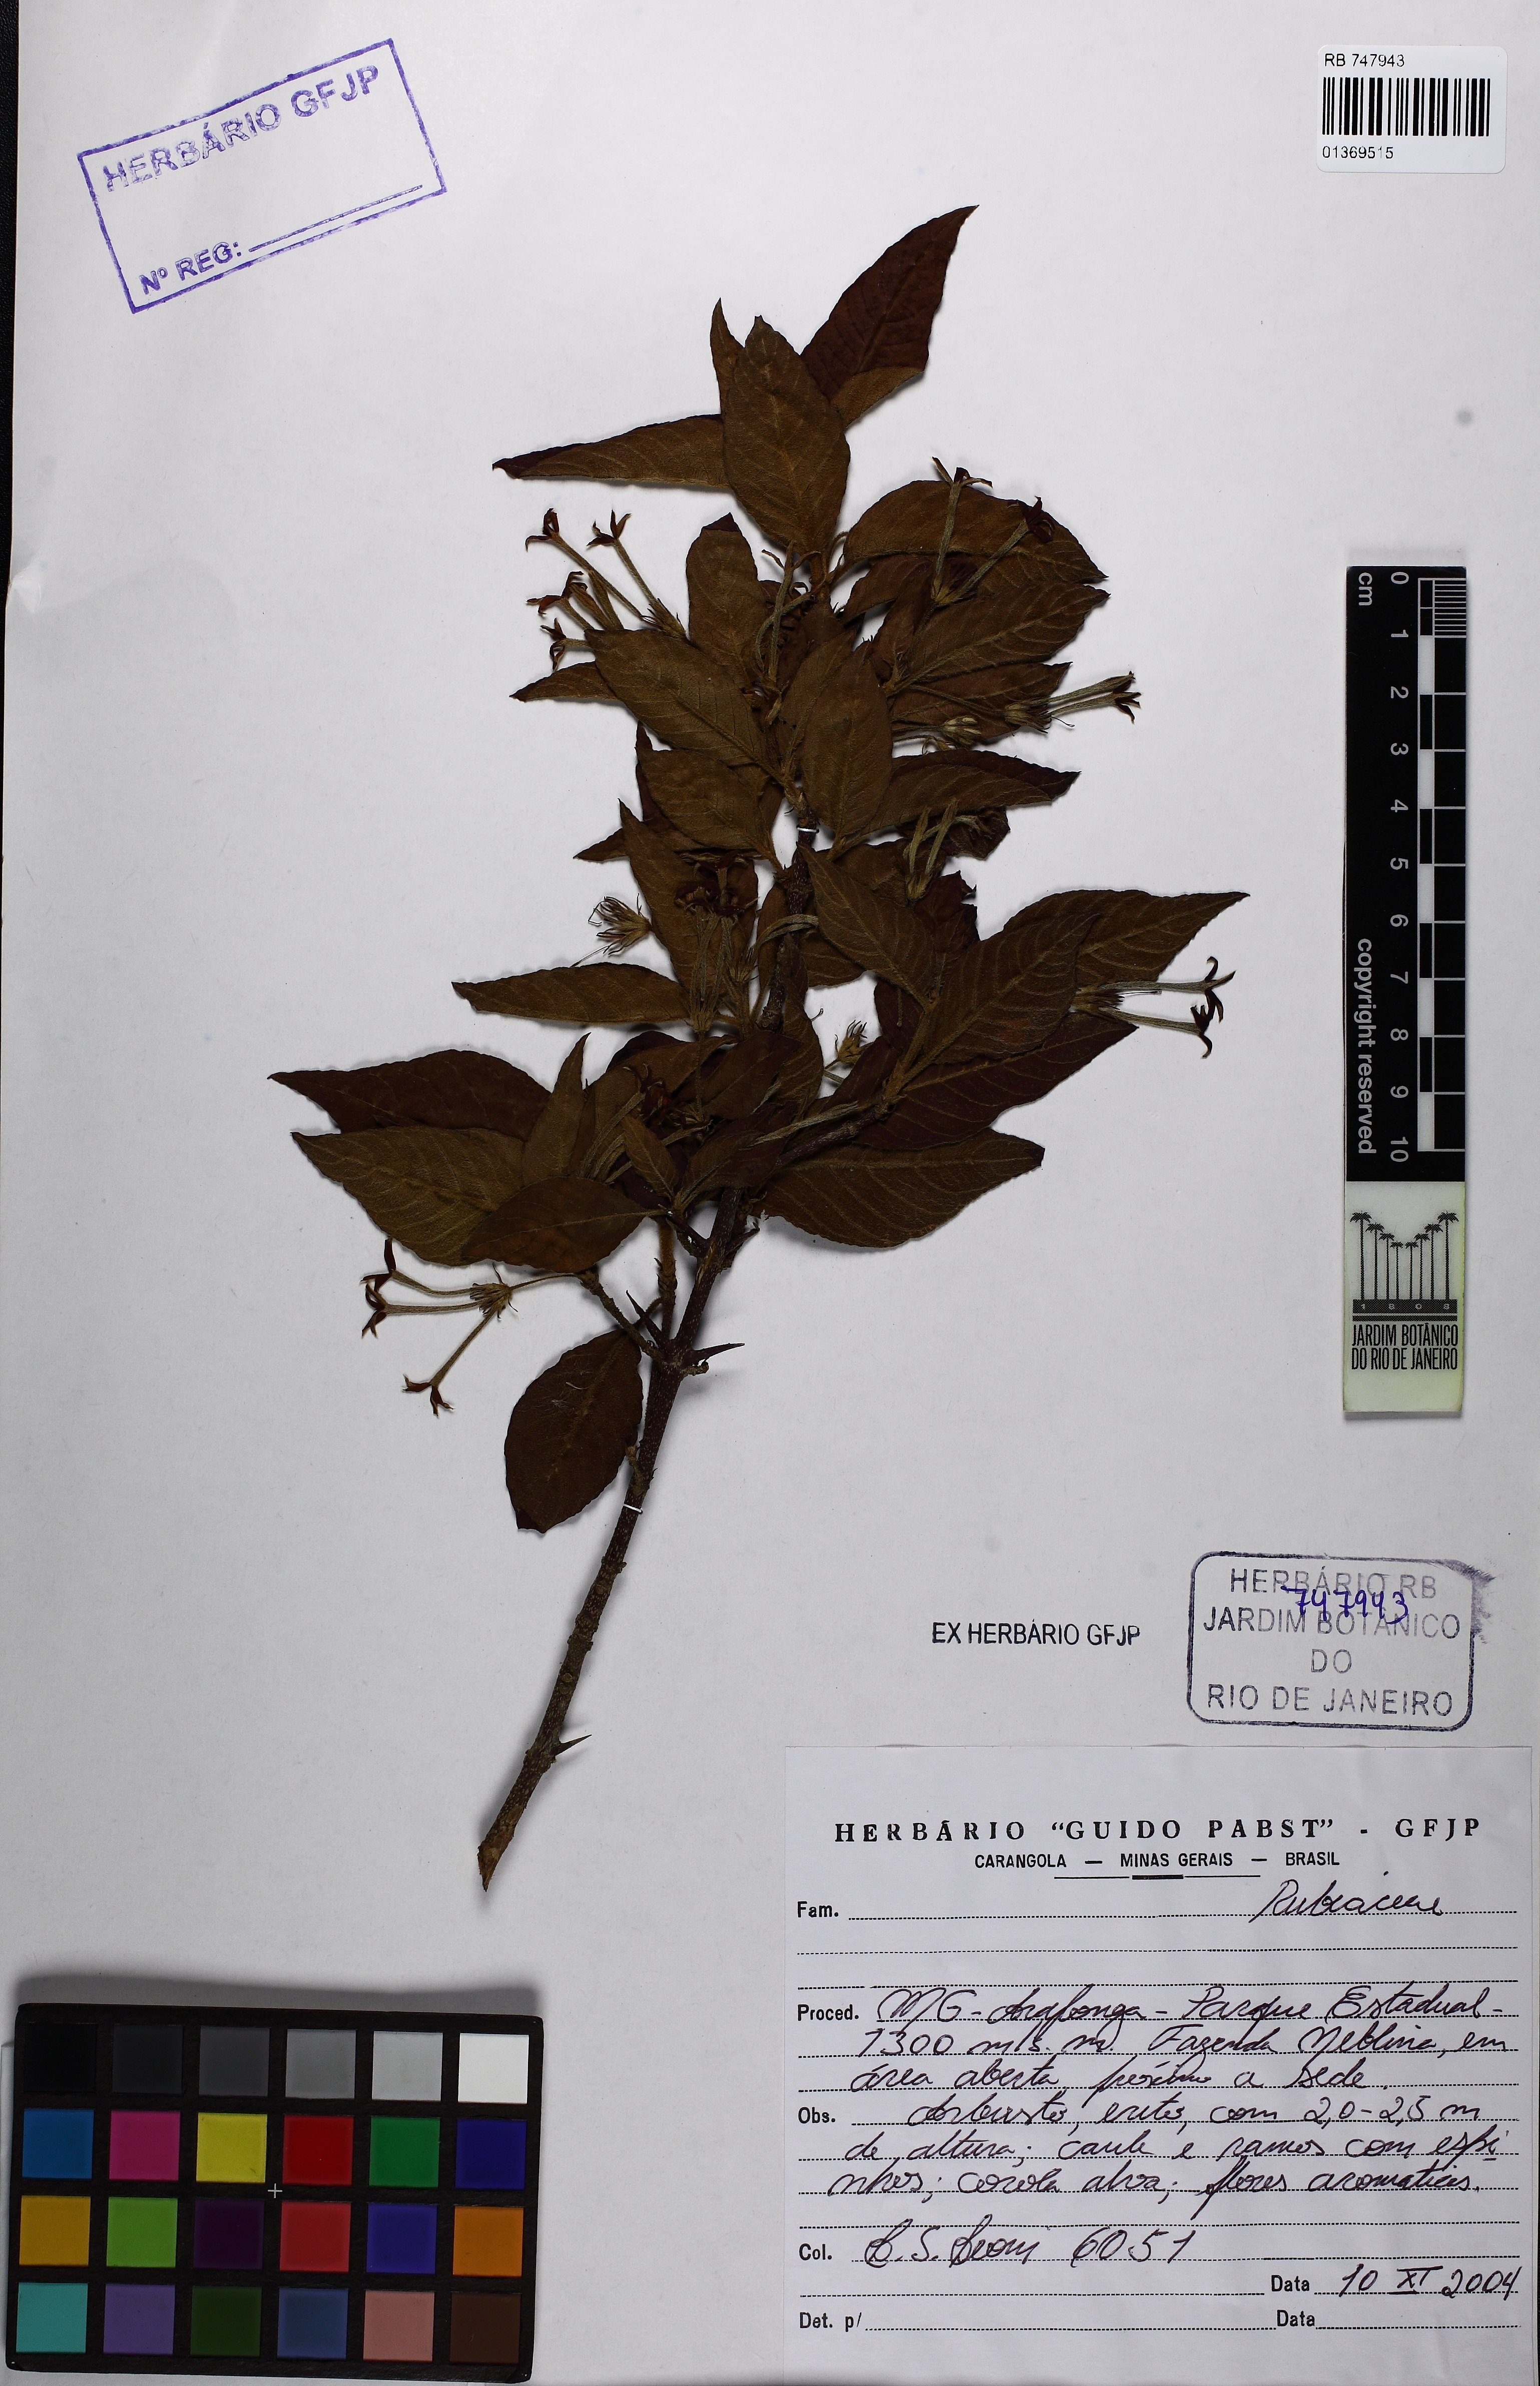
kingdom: Plantae
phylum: Tracheophyta
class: Magnoliopsida
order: Gentianales
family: Rubiaceae
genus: Chomelia
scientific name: Chomelia
